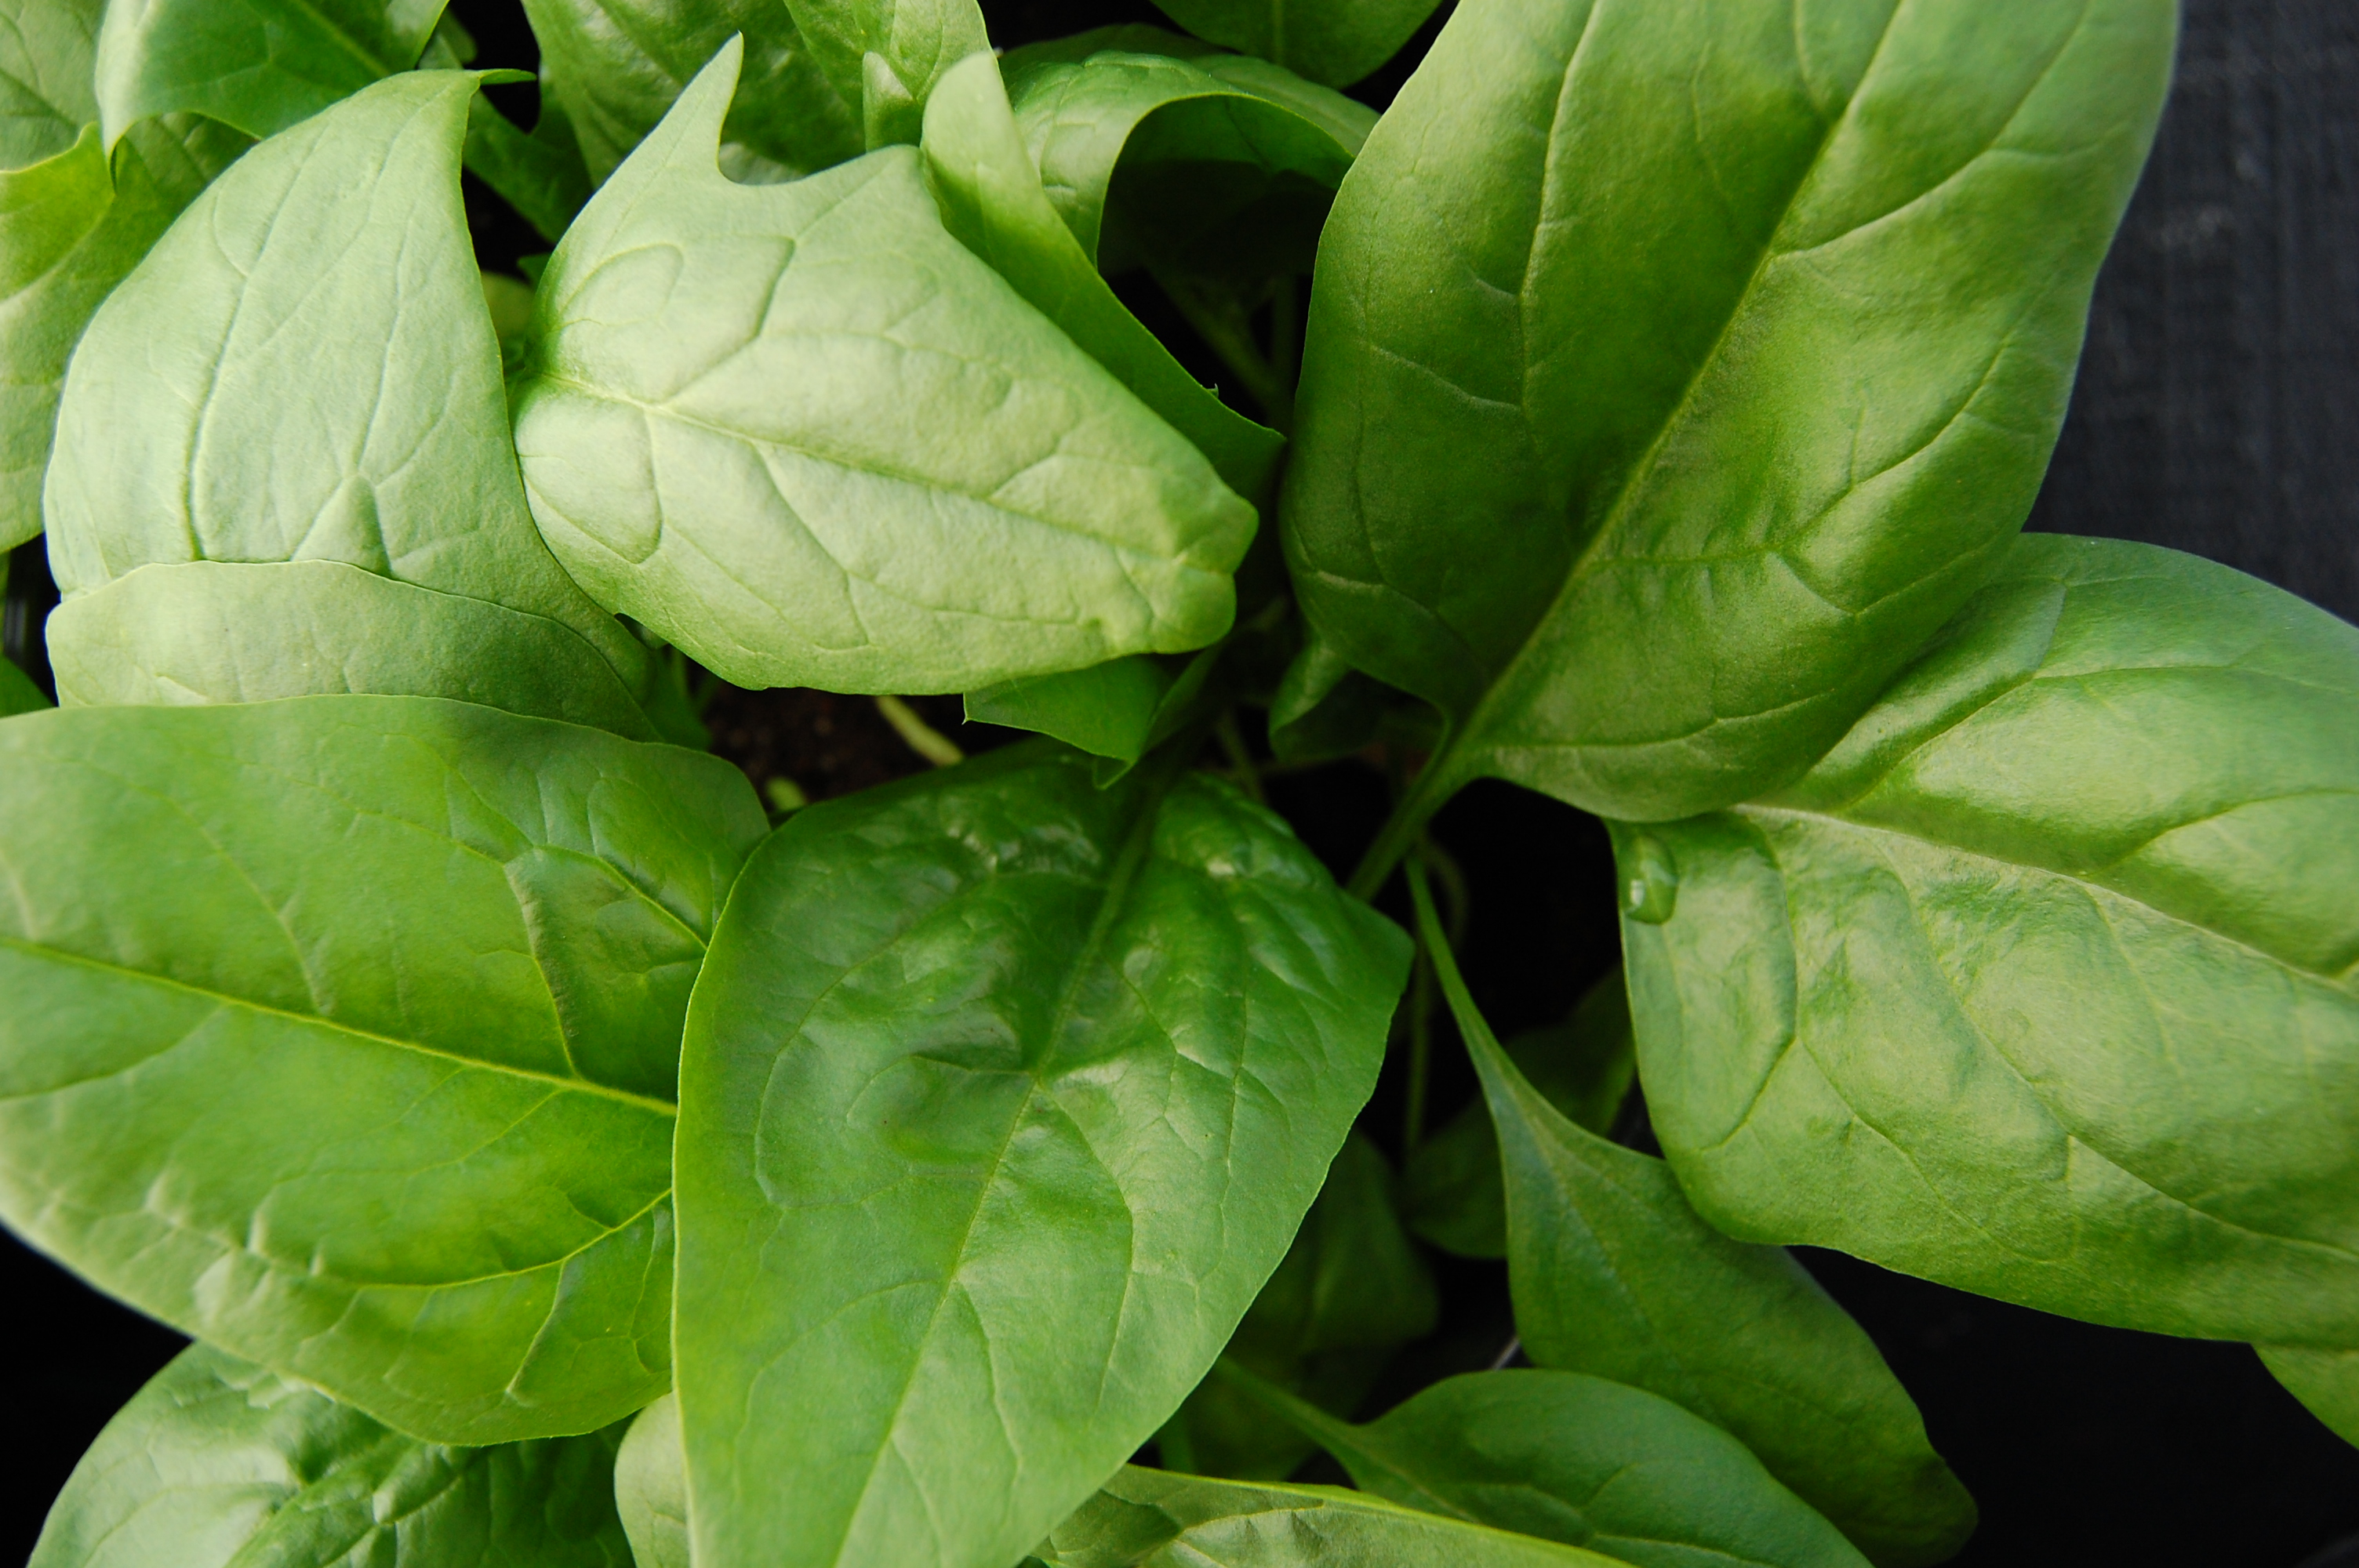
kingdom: Plantae
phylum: Tracheophyta
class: Magnoliopsida
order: Caryophyllales
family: Amaranthaceae
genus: Spinacia
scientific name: Spinacia oleracea
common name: Spinach
